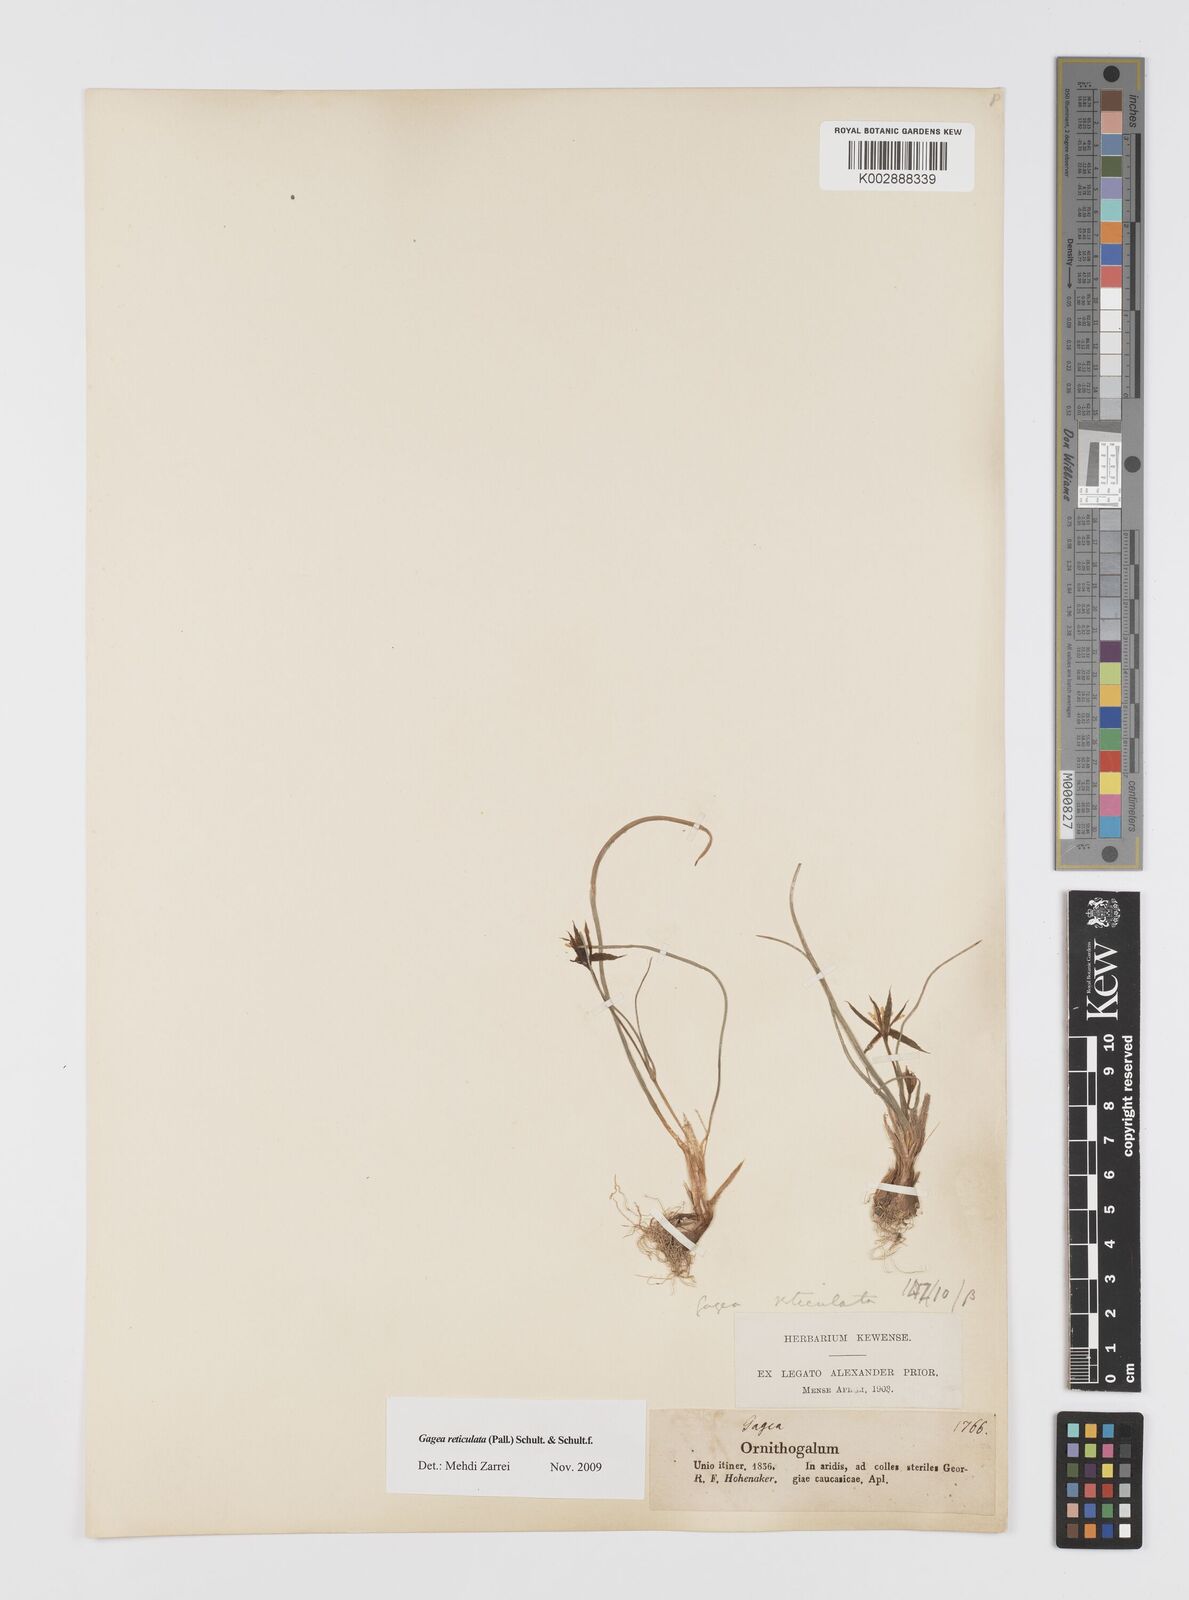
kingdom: Plantae
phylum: Tracheophyta
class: Liliopsida
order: Liliales
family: Liliaceae
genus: Gagea
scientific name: Gagea reticulata
